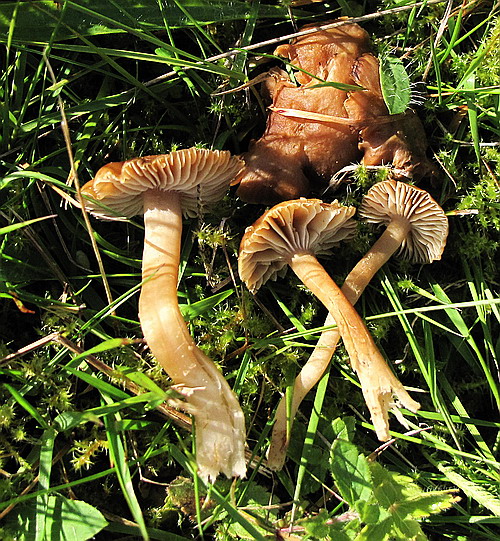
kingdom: Fungi
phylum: Basidiomycota
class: Agaricomycetes
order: Agaricales
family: Clavariaceae
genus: Camarophyllopsis
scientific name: Camarophyllopsis schulzeri
